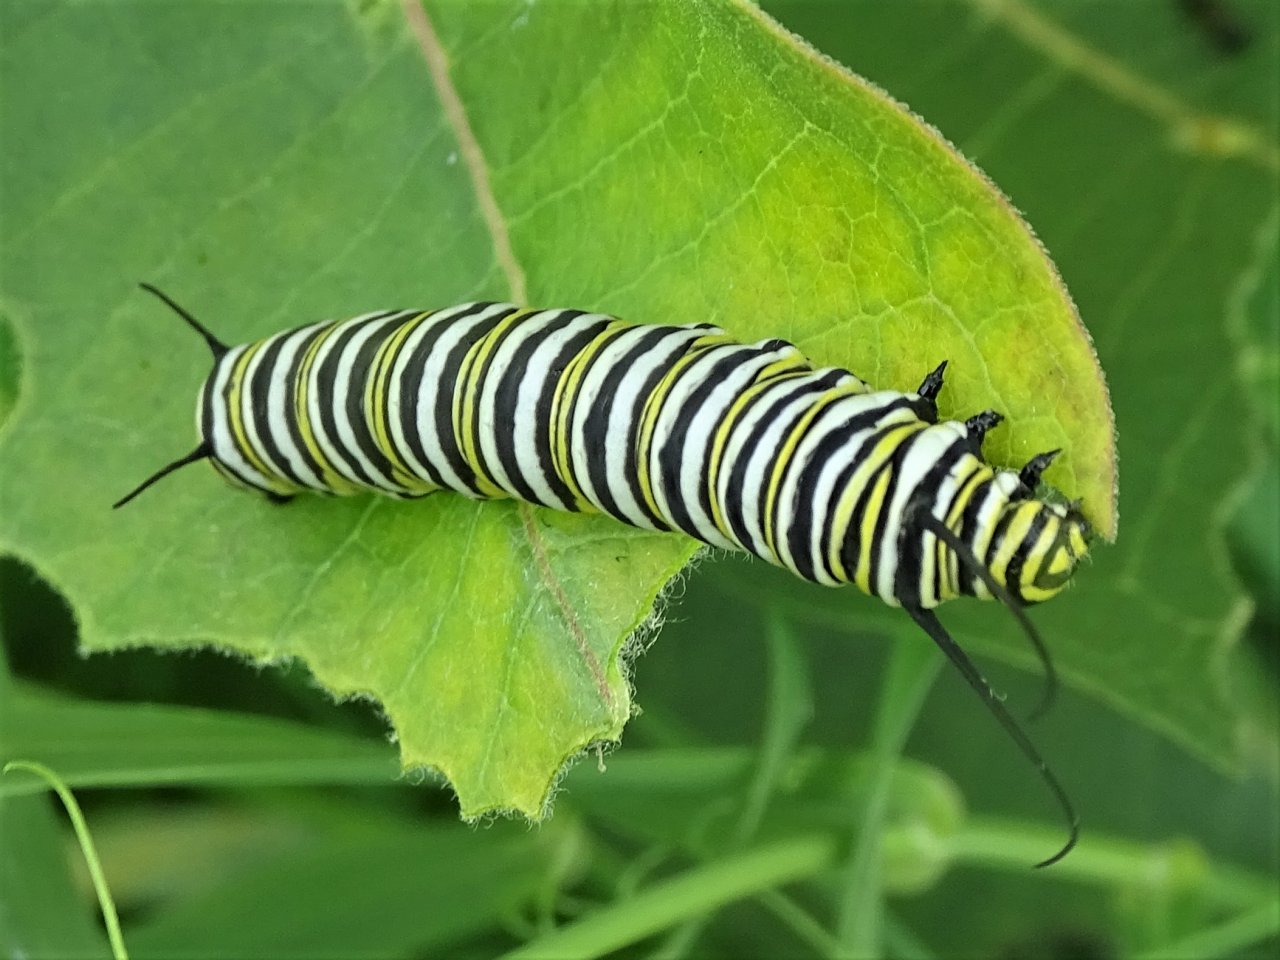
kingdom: Animalia
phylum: Arthropoda
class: Insecta
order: Lepidoptera
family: Nymphalidae
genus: Danaus
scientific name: Danaus plexippus
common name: Monarch
